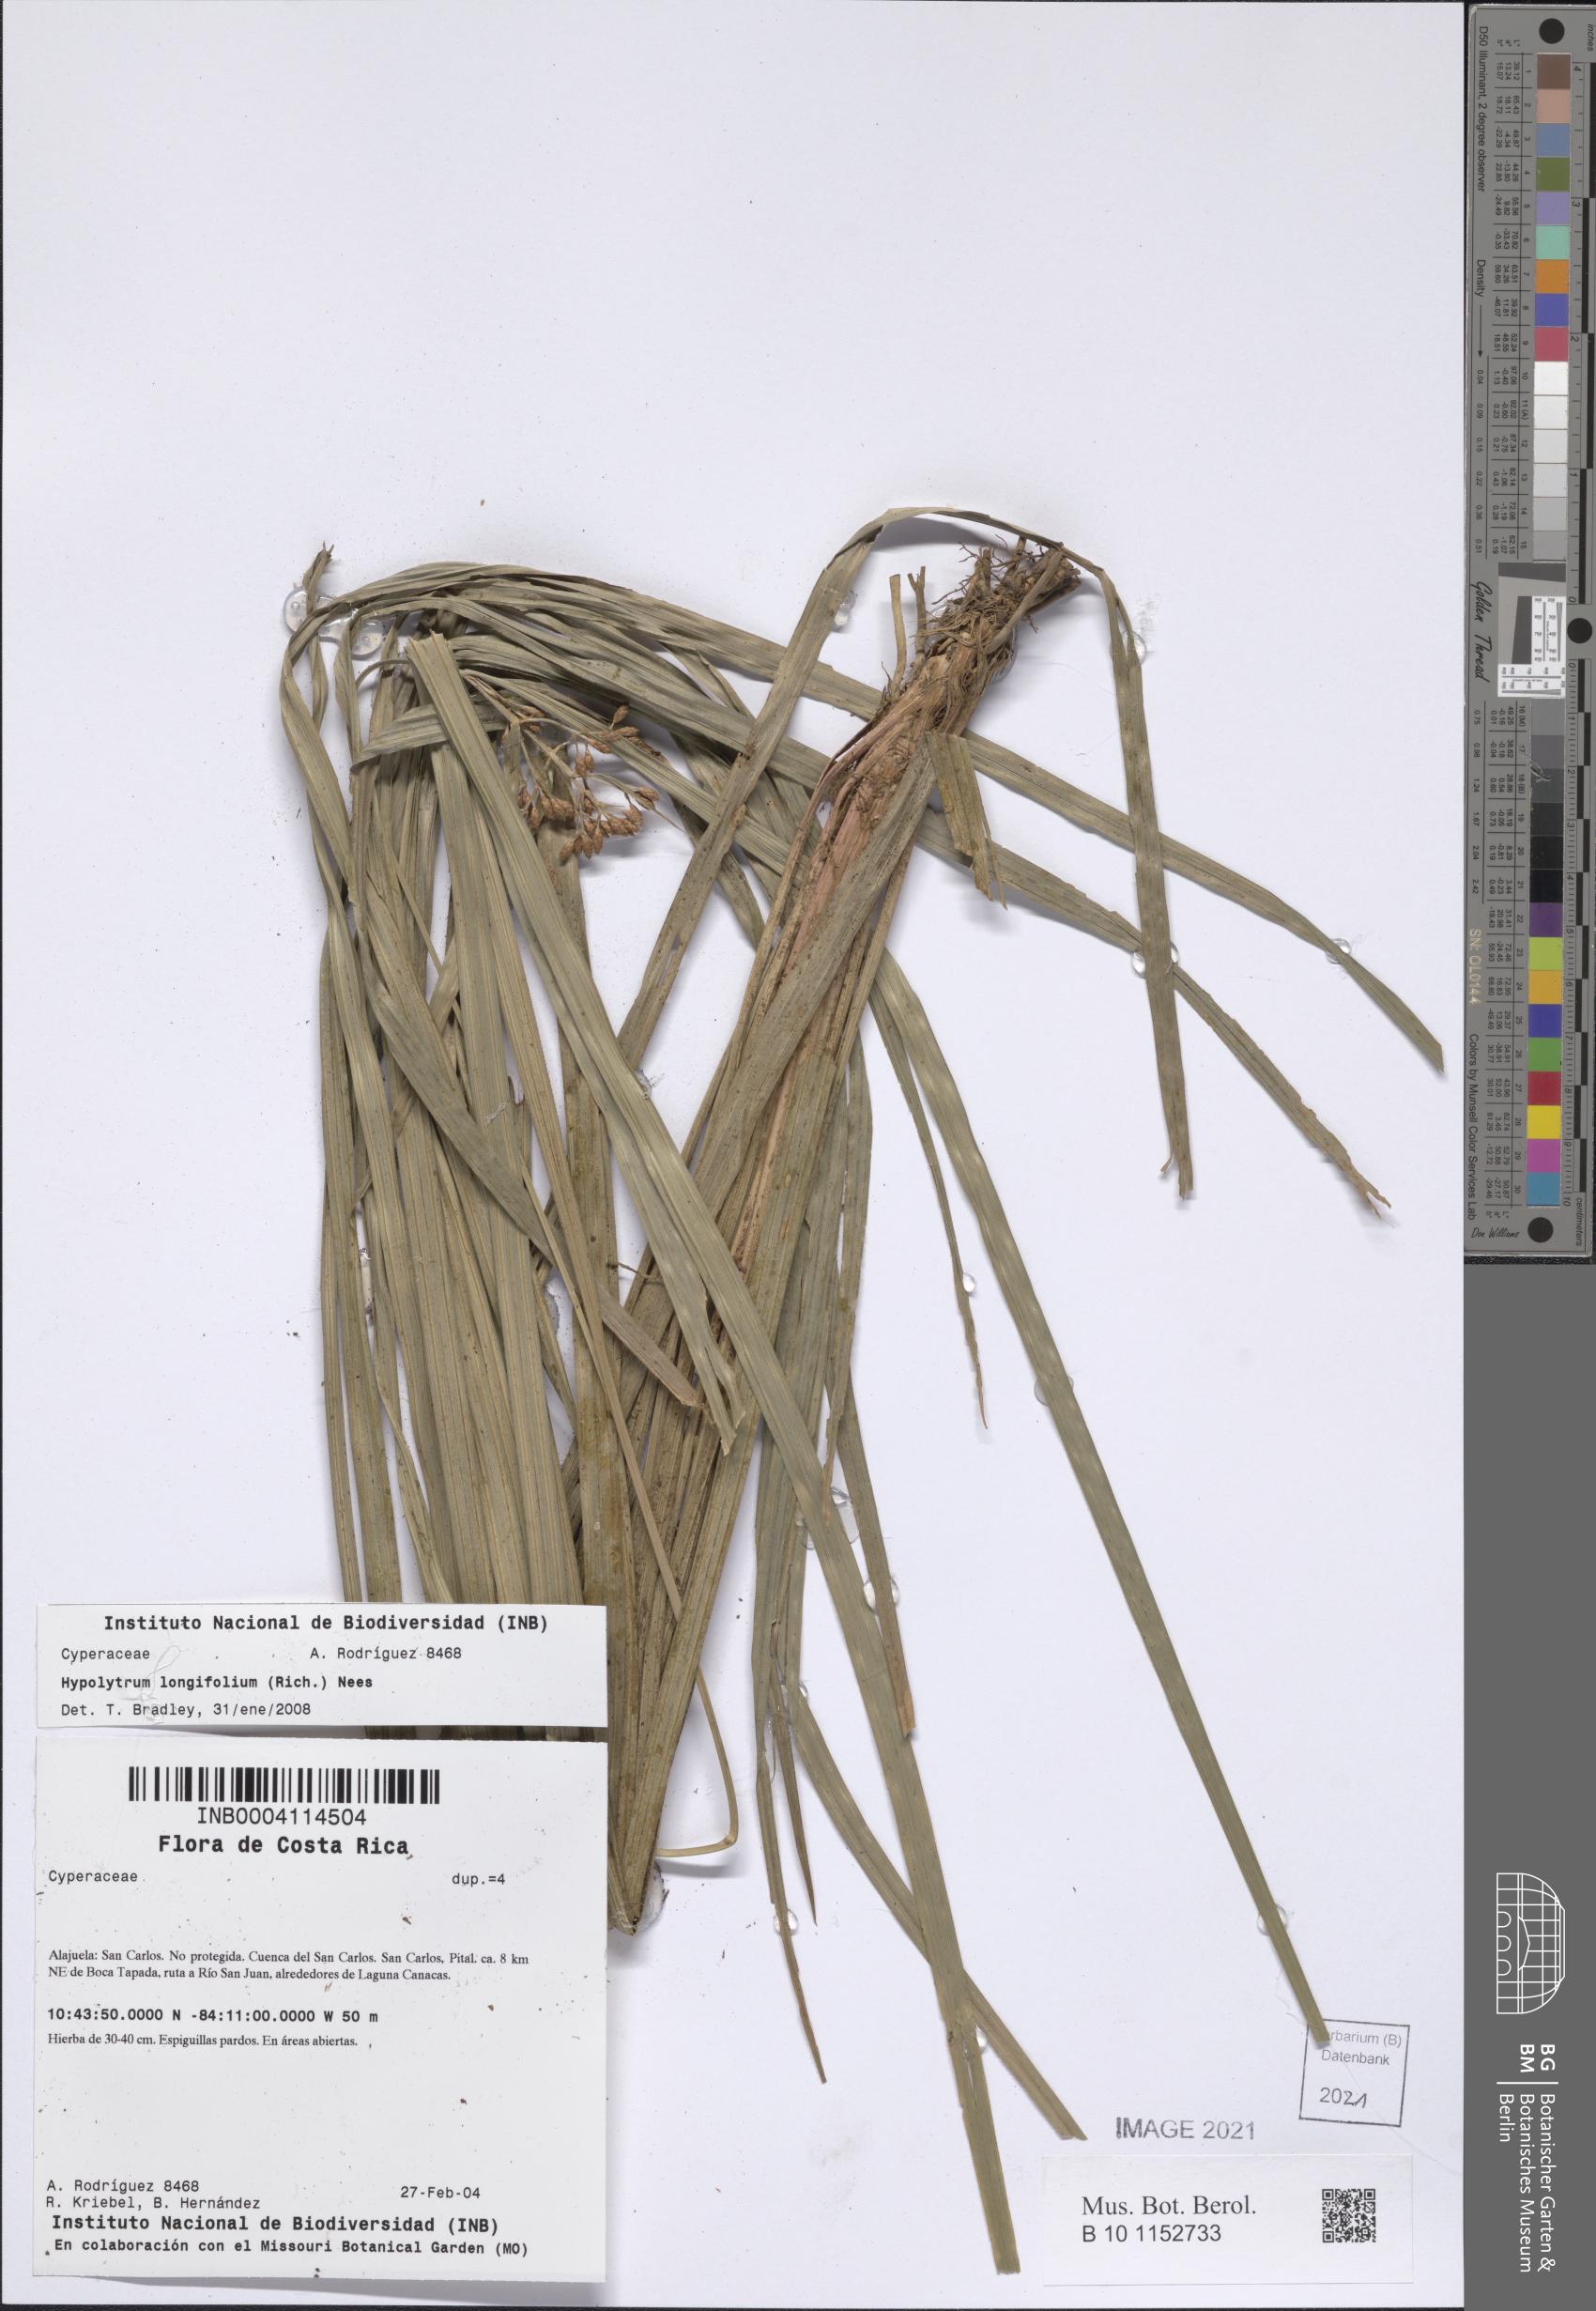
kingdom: Plantae
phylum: Tracheophyta
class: Liliopsida
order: Poales
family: Cyperaceae
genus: Hypolytrum
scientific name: Hypolytrum longifolium
